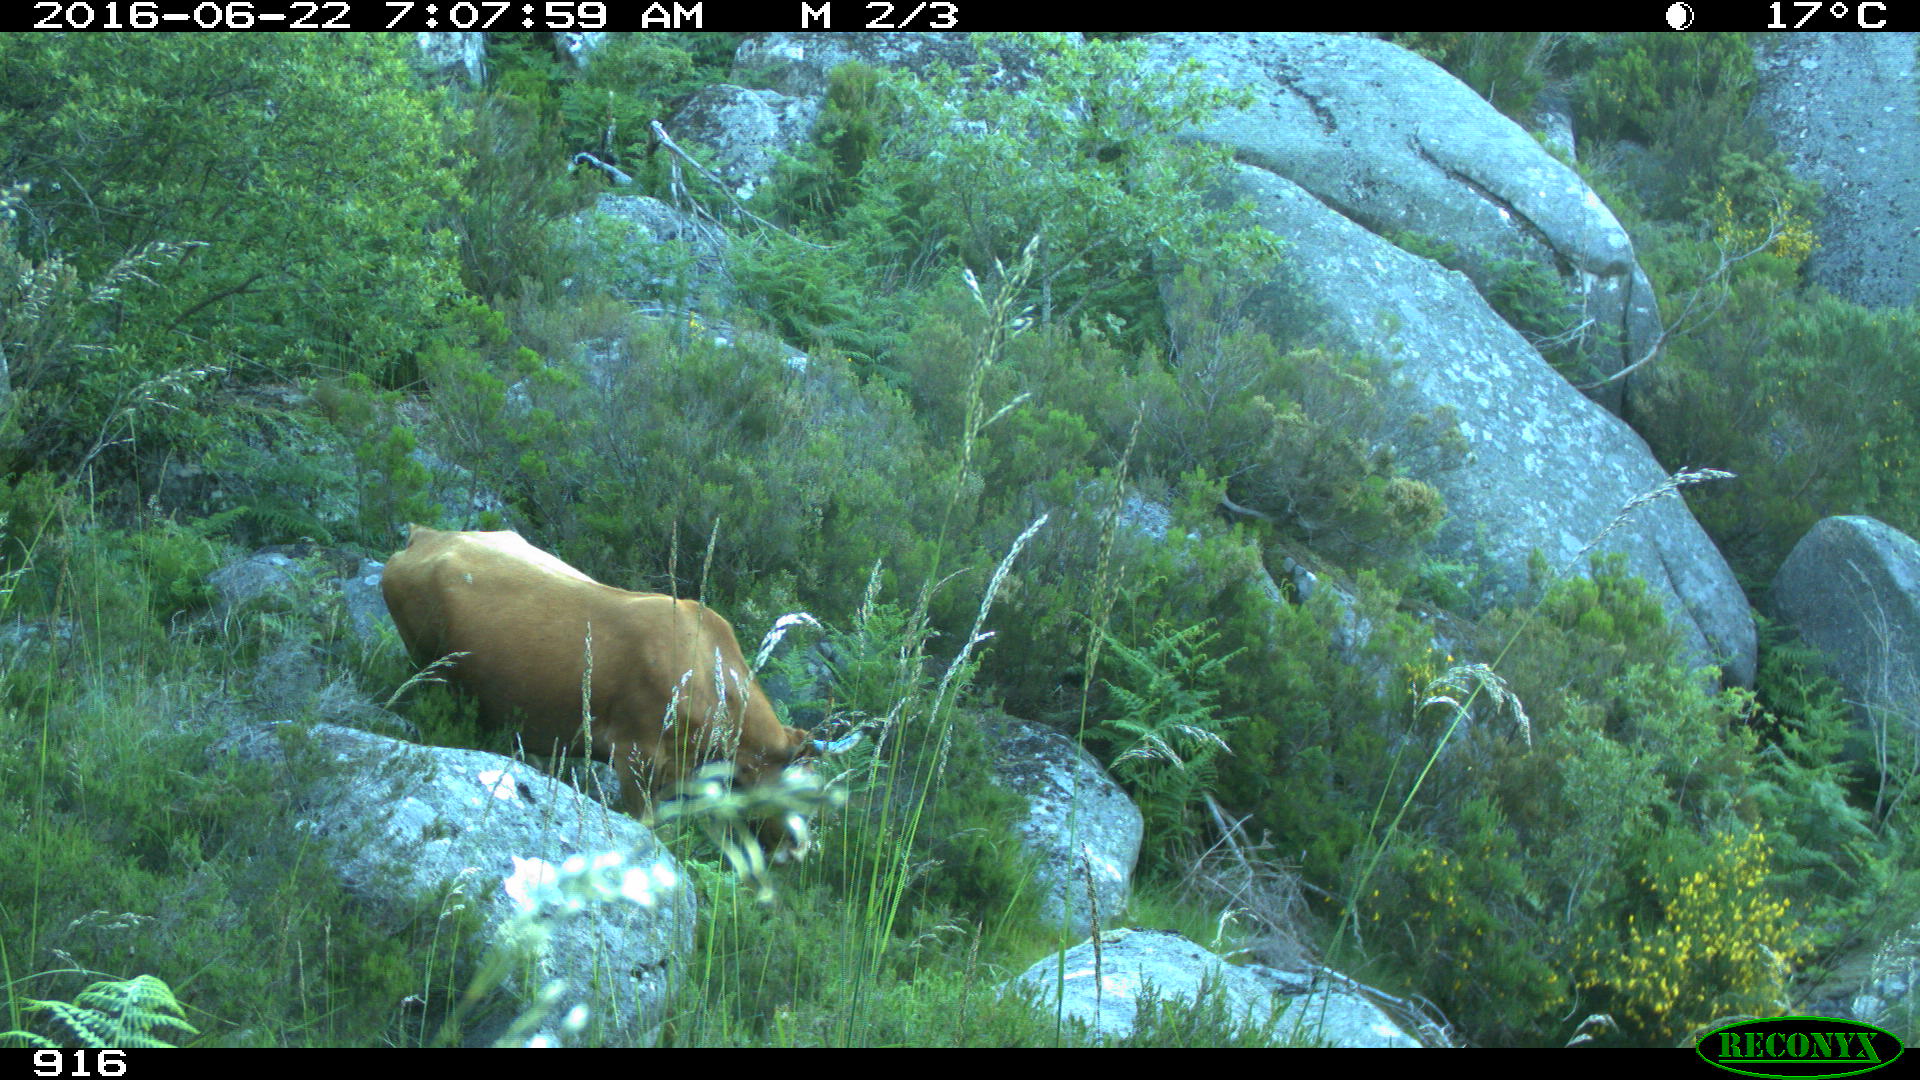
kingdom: Animalia
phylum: Chordata
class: Mammalia
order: Artiodactyla
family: Bovidae
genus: Bos
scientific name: Bos taurus
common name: Domesticated cattle
